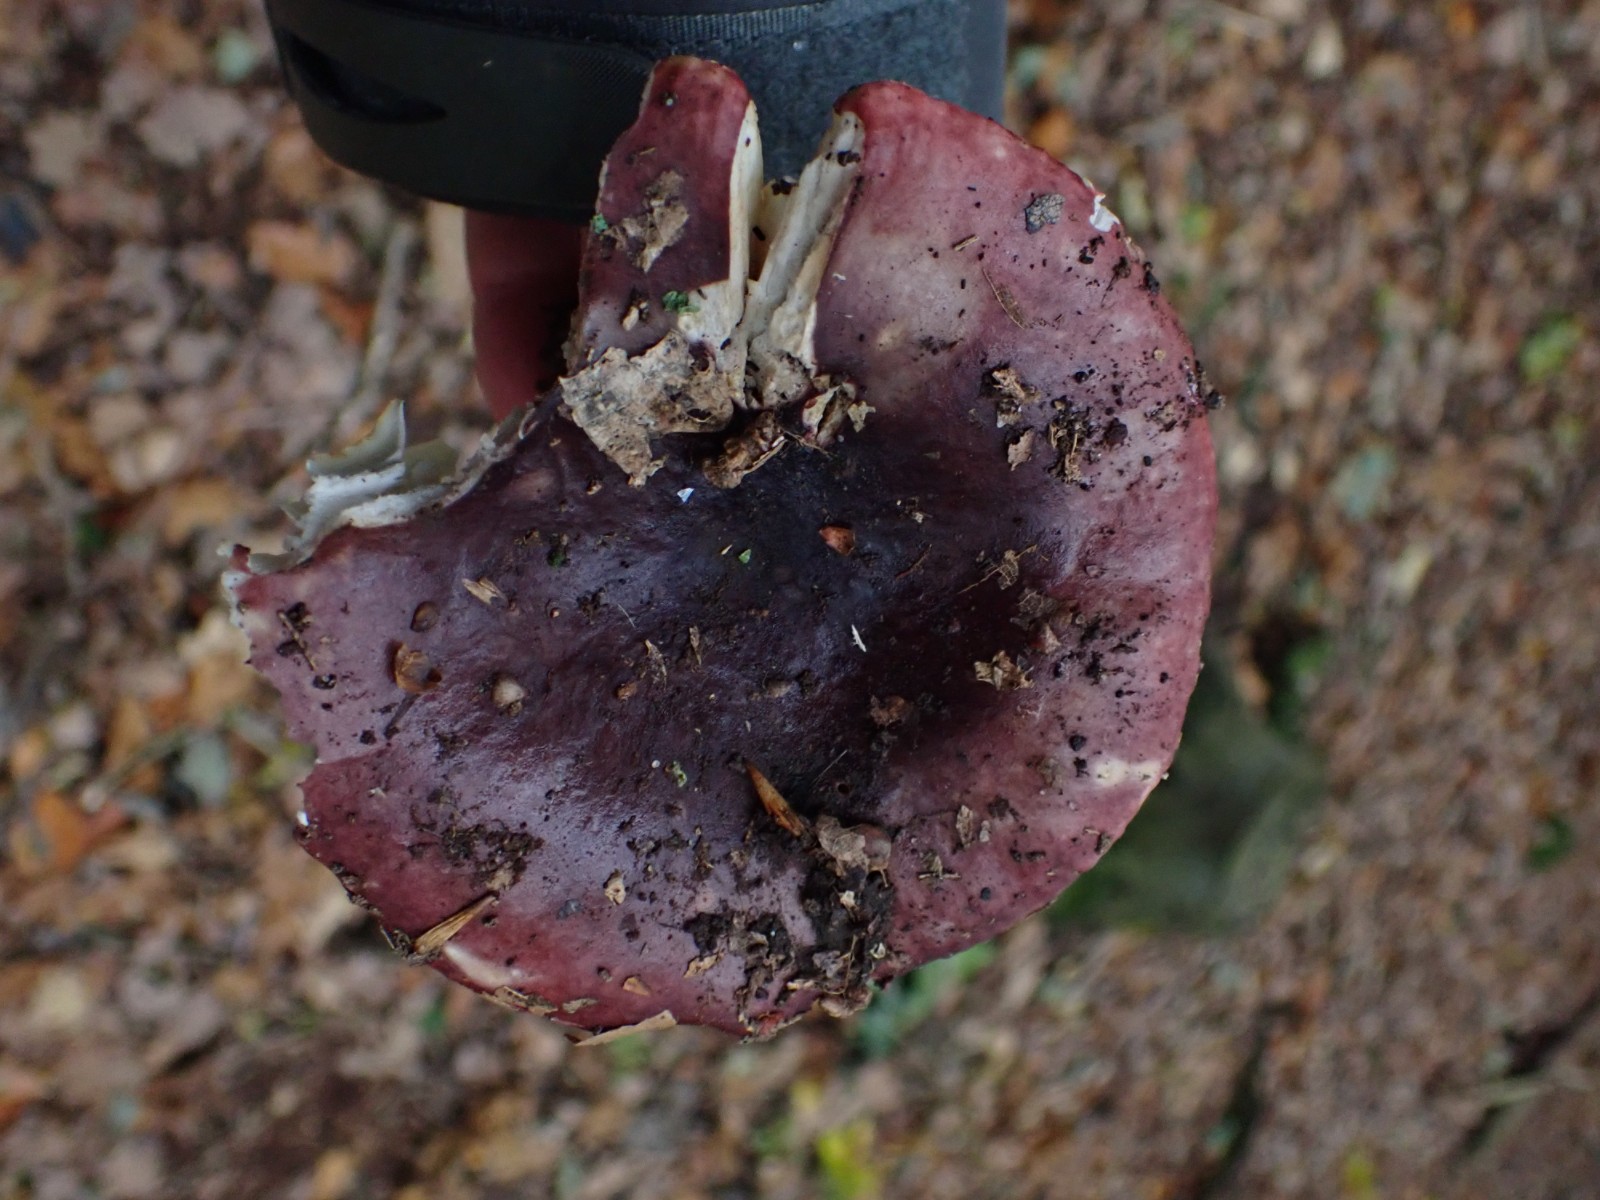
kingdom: Fungi
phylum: Basidiomycota
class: Agaricomycetes
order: Russulales
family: Russulaceae
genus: Russula
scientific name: Russula
